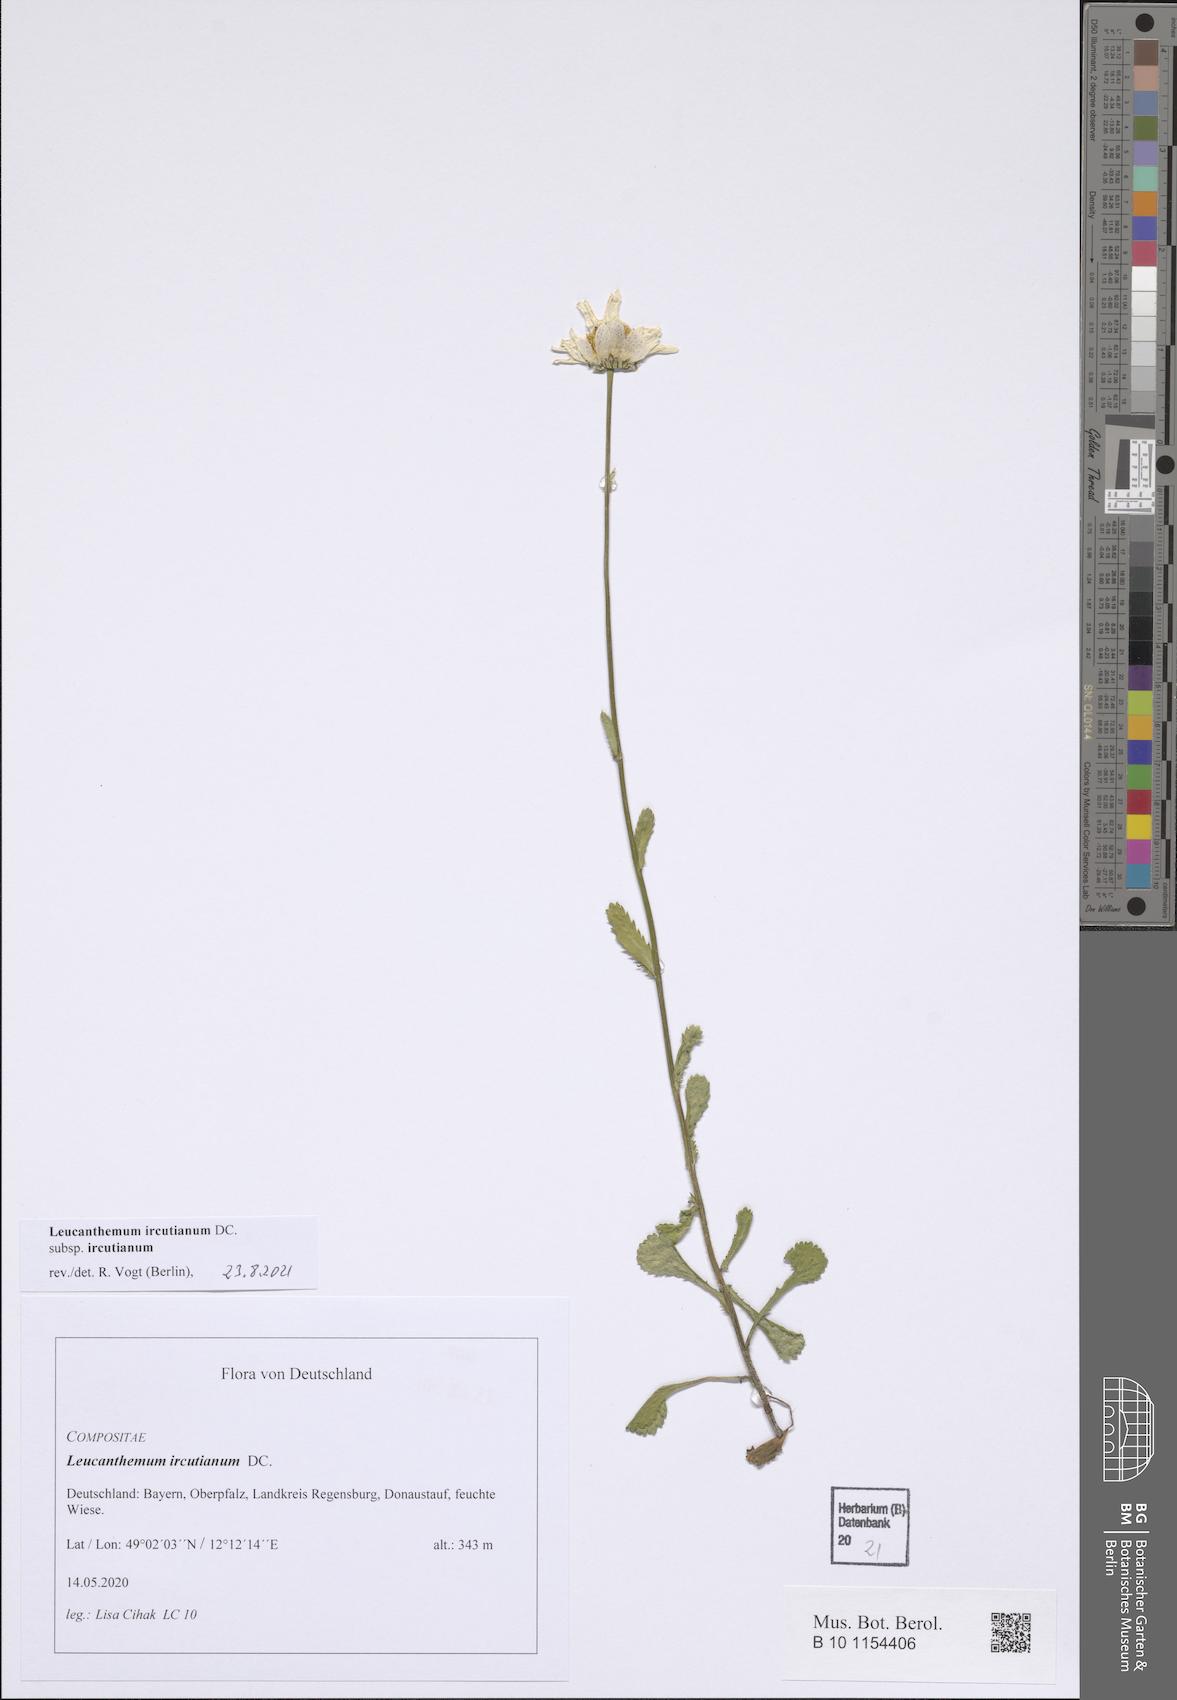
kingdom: Plantae
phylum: Tracheophyta
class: Magnoliopsida
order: Asterales
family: Asteraceae
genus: Leucanthemum
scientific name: Leucanthemum ircutianum
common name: Daisy
